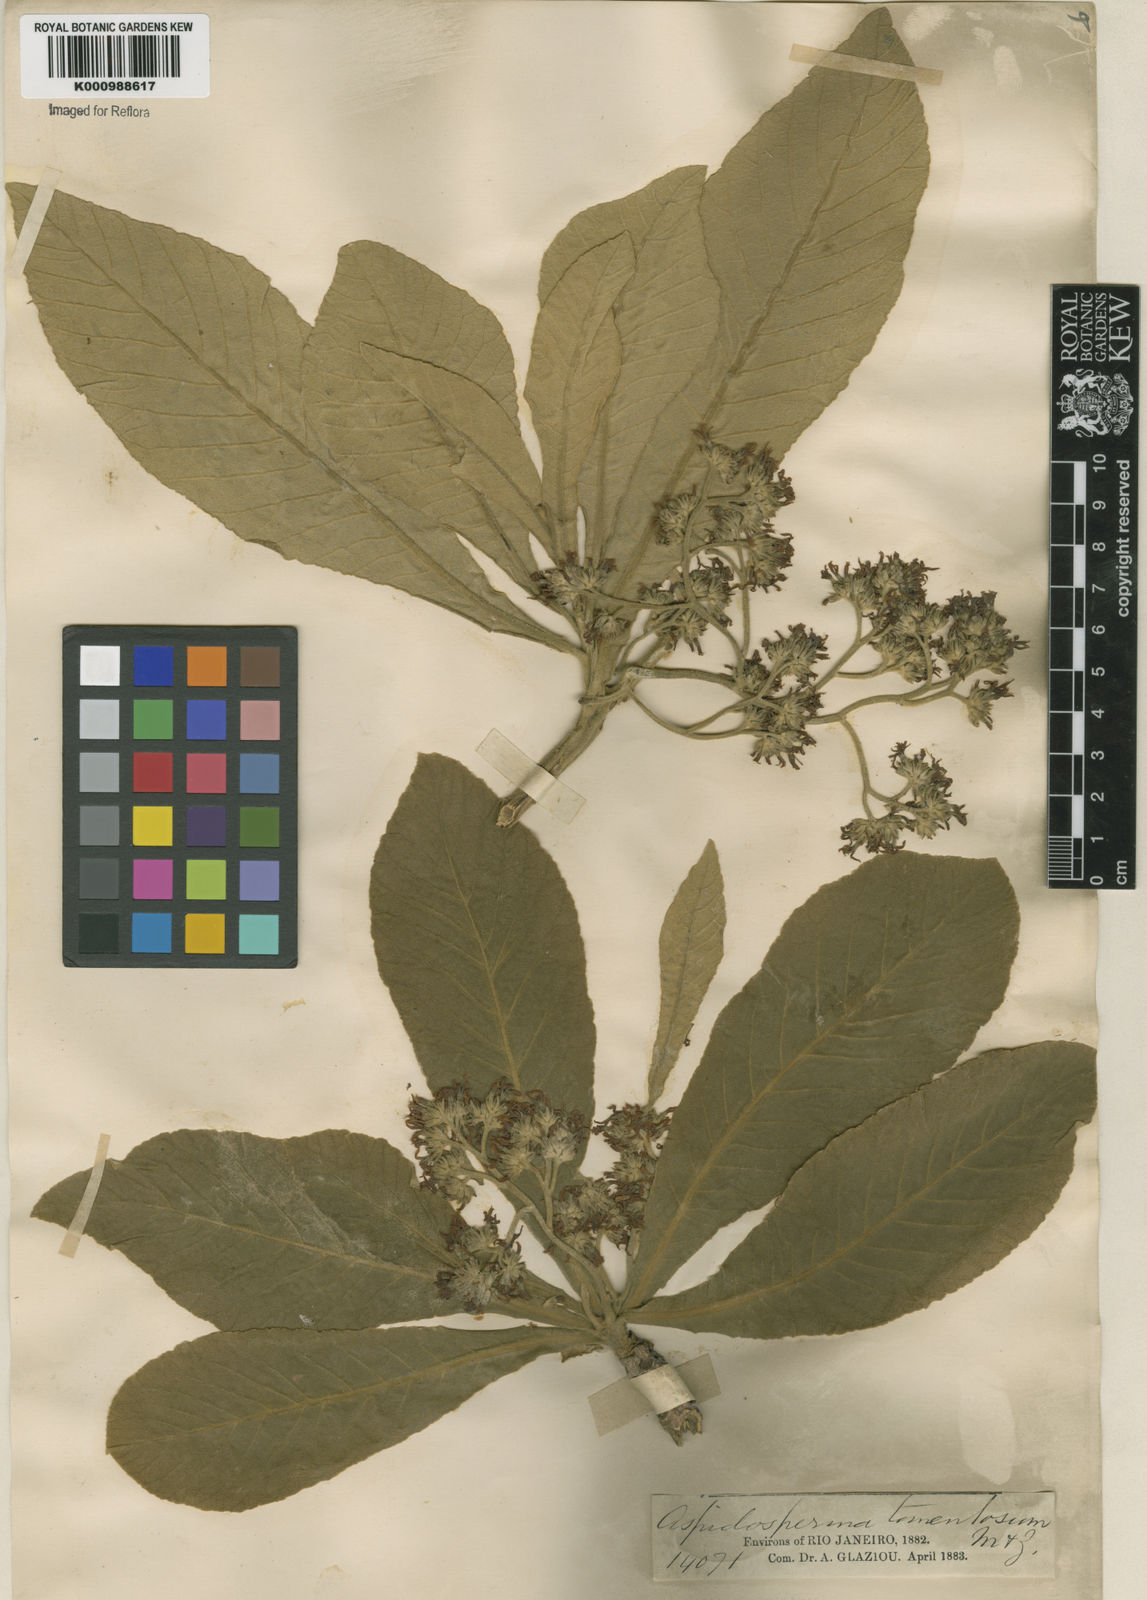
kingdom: Plantae
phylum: Tracheophyta
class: Magnoliopsida
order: Gentianales
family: Apocynaceae
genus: Aspidosperma
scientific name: Aspidosperma tomentosum
